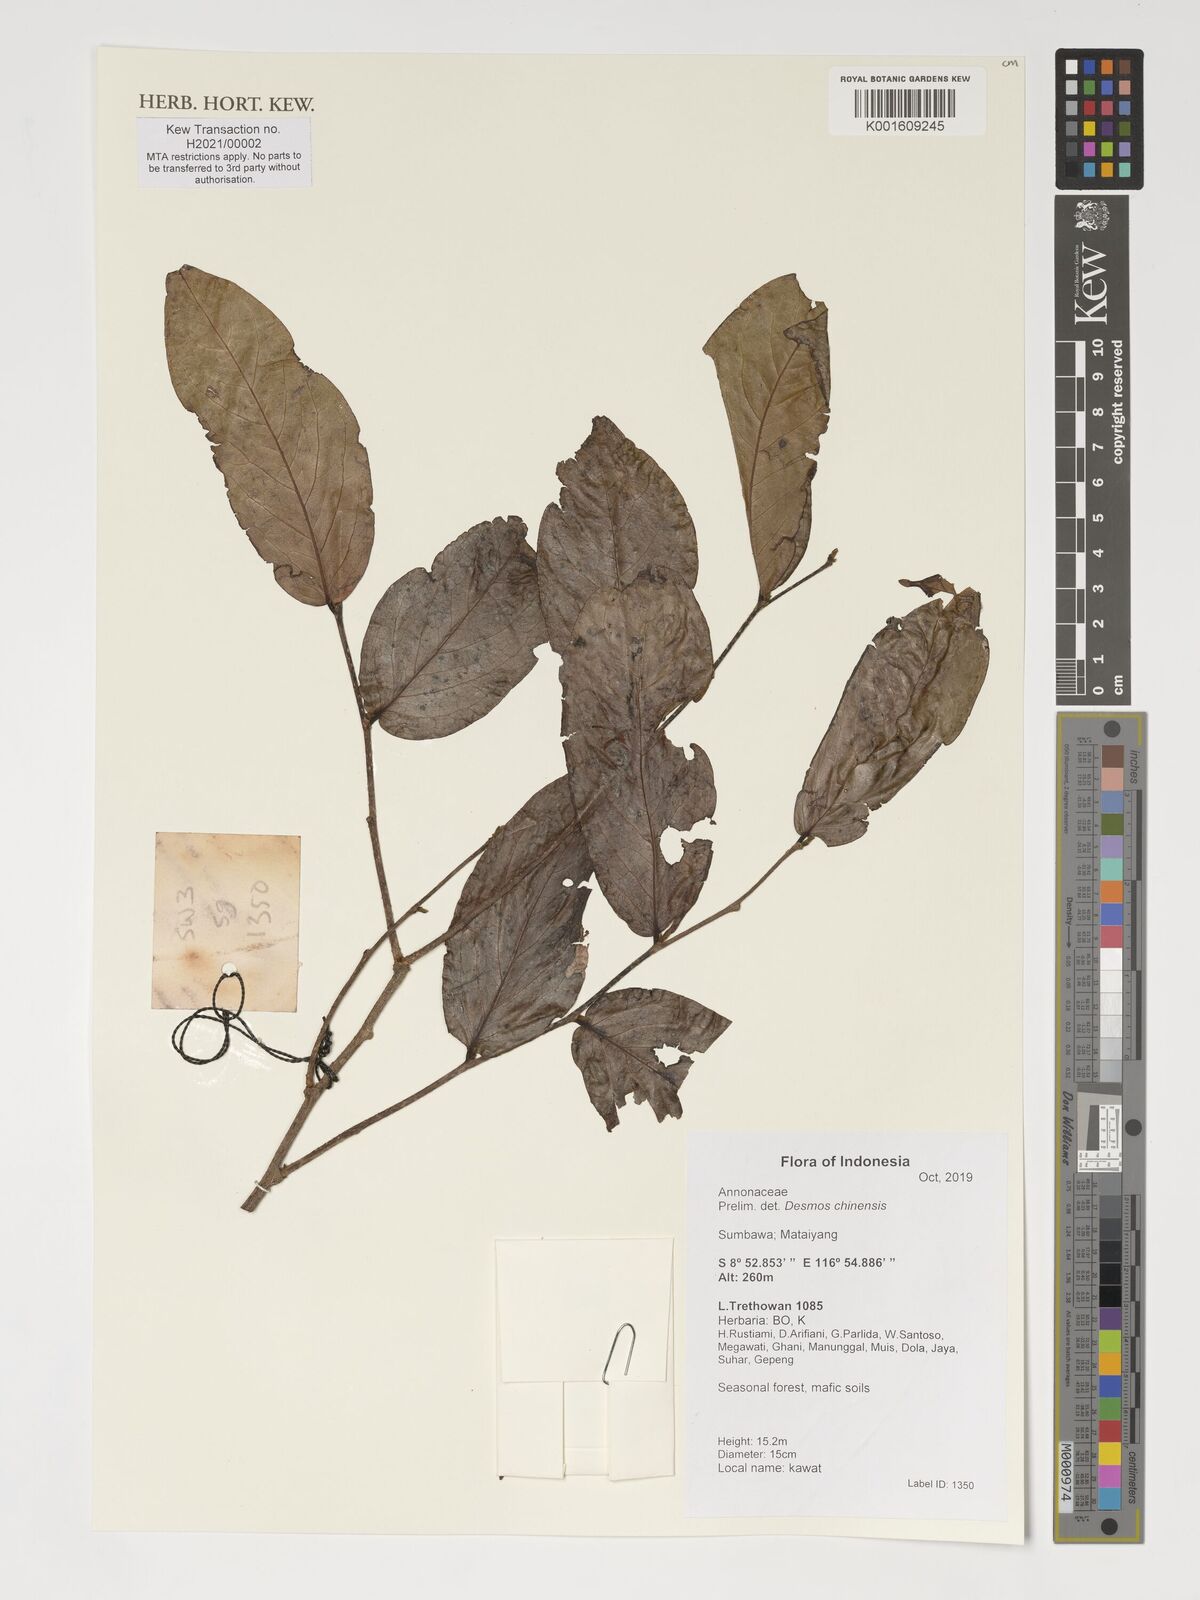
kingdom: Plantae
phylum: Tracheophyta
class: Magnoliopsida
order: Magnoliales
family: Annonaceae
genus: Desmos
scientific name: Desmos chinensis
